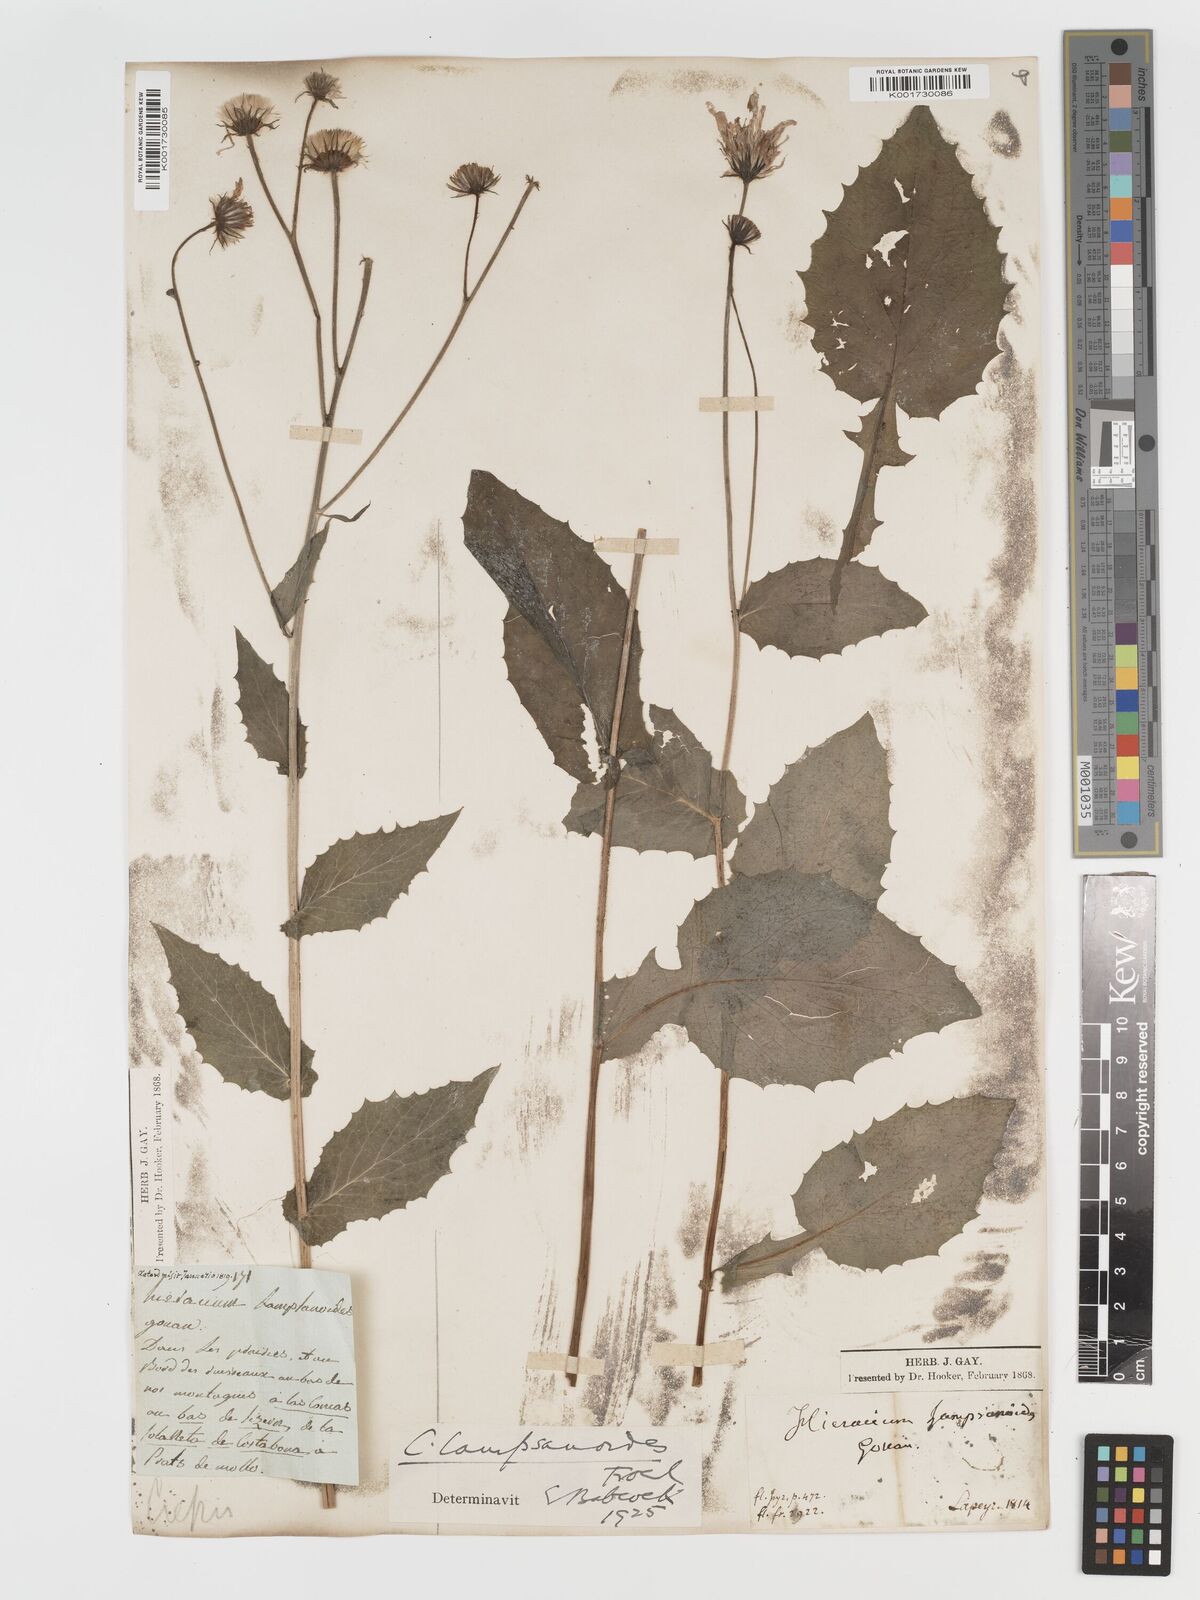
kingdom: Plantae
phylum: Tracheophyta
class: Magnoliopsida
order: Asterales
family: Asteraceae
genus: Crepis
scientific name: Crepis lampsanoides
